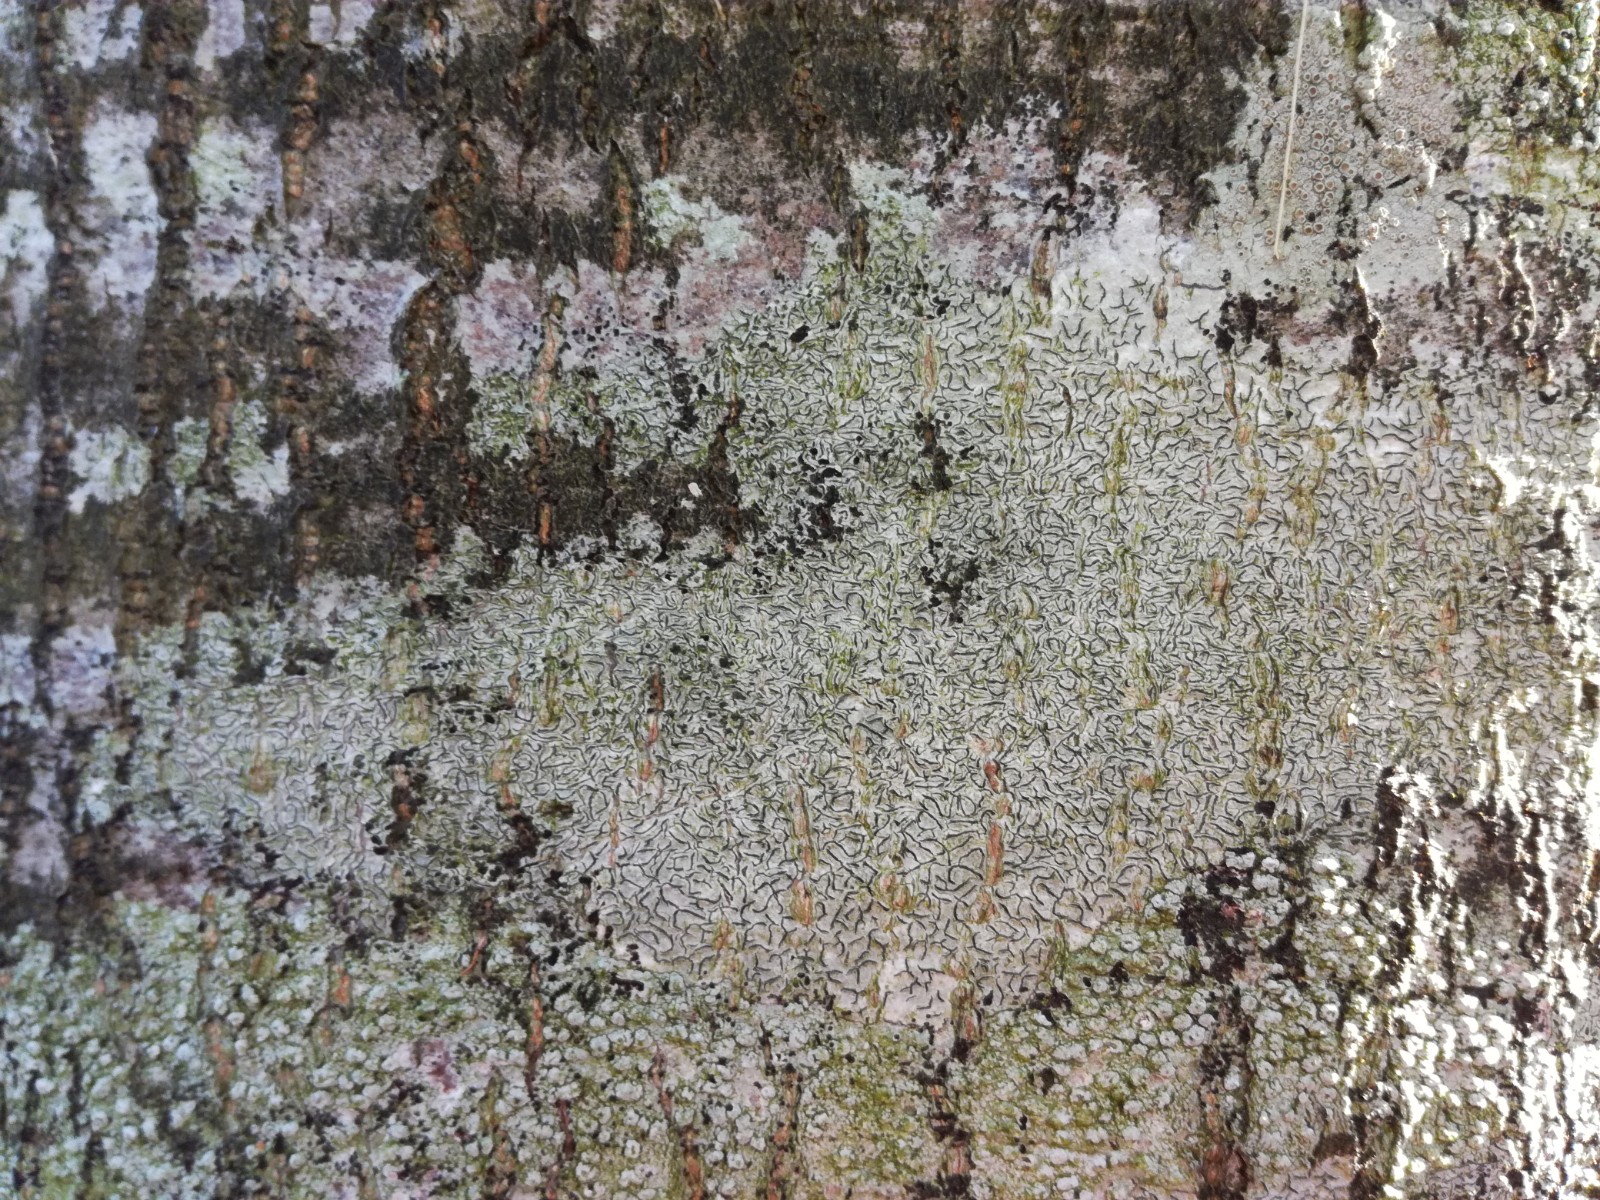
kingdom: Fungi
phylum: Ascomycota
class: Lecanoromycetes
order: Ostropales
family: Graphidaceae
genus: Graphis
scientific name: Graphis scripta
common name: almindelig skriftlav
